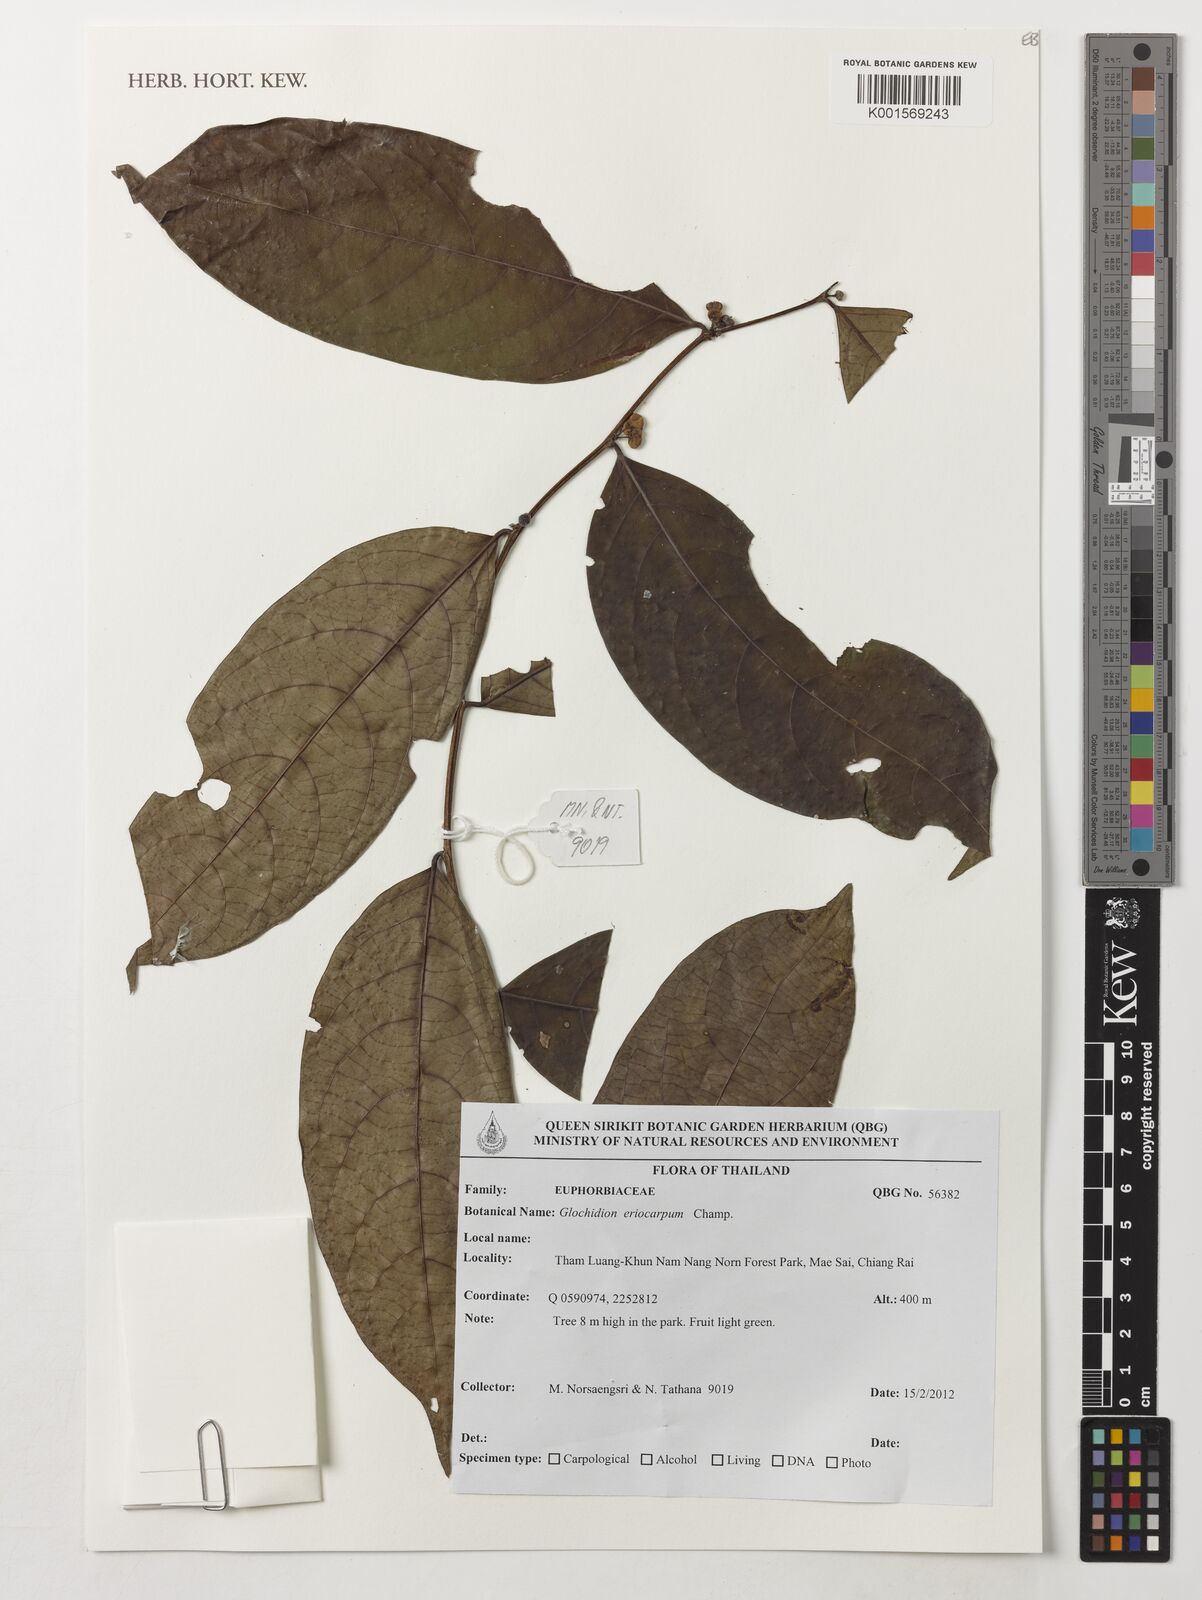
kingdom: Plantae
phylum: Tracheophyta
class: Magnoliopsida
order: Malpighiales
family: Phyllanthaceae
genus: Glochidion
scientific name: Glochidion eriocarpum
